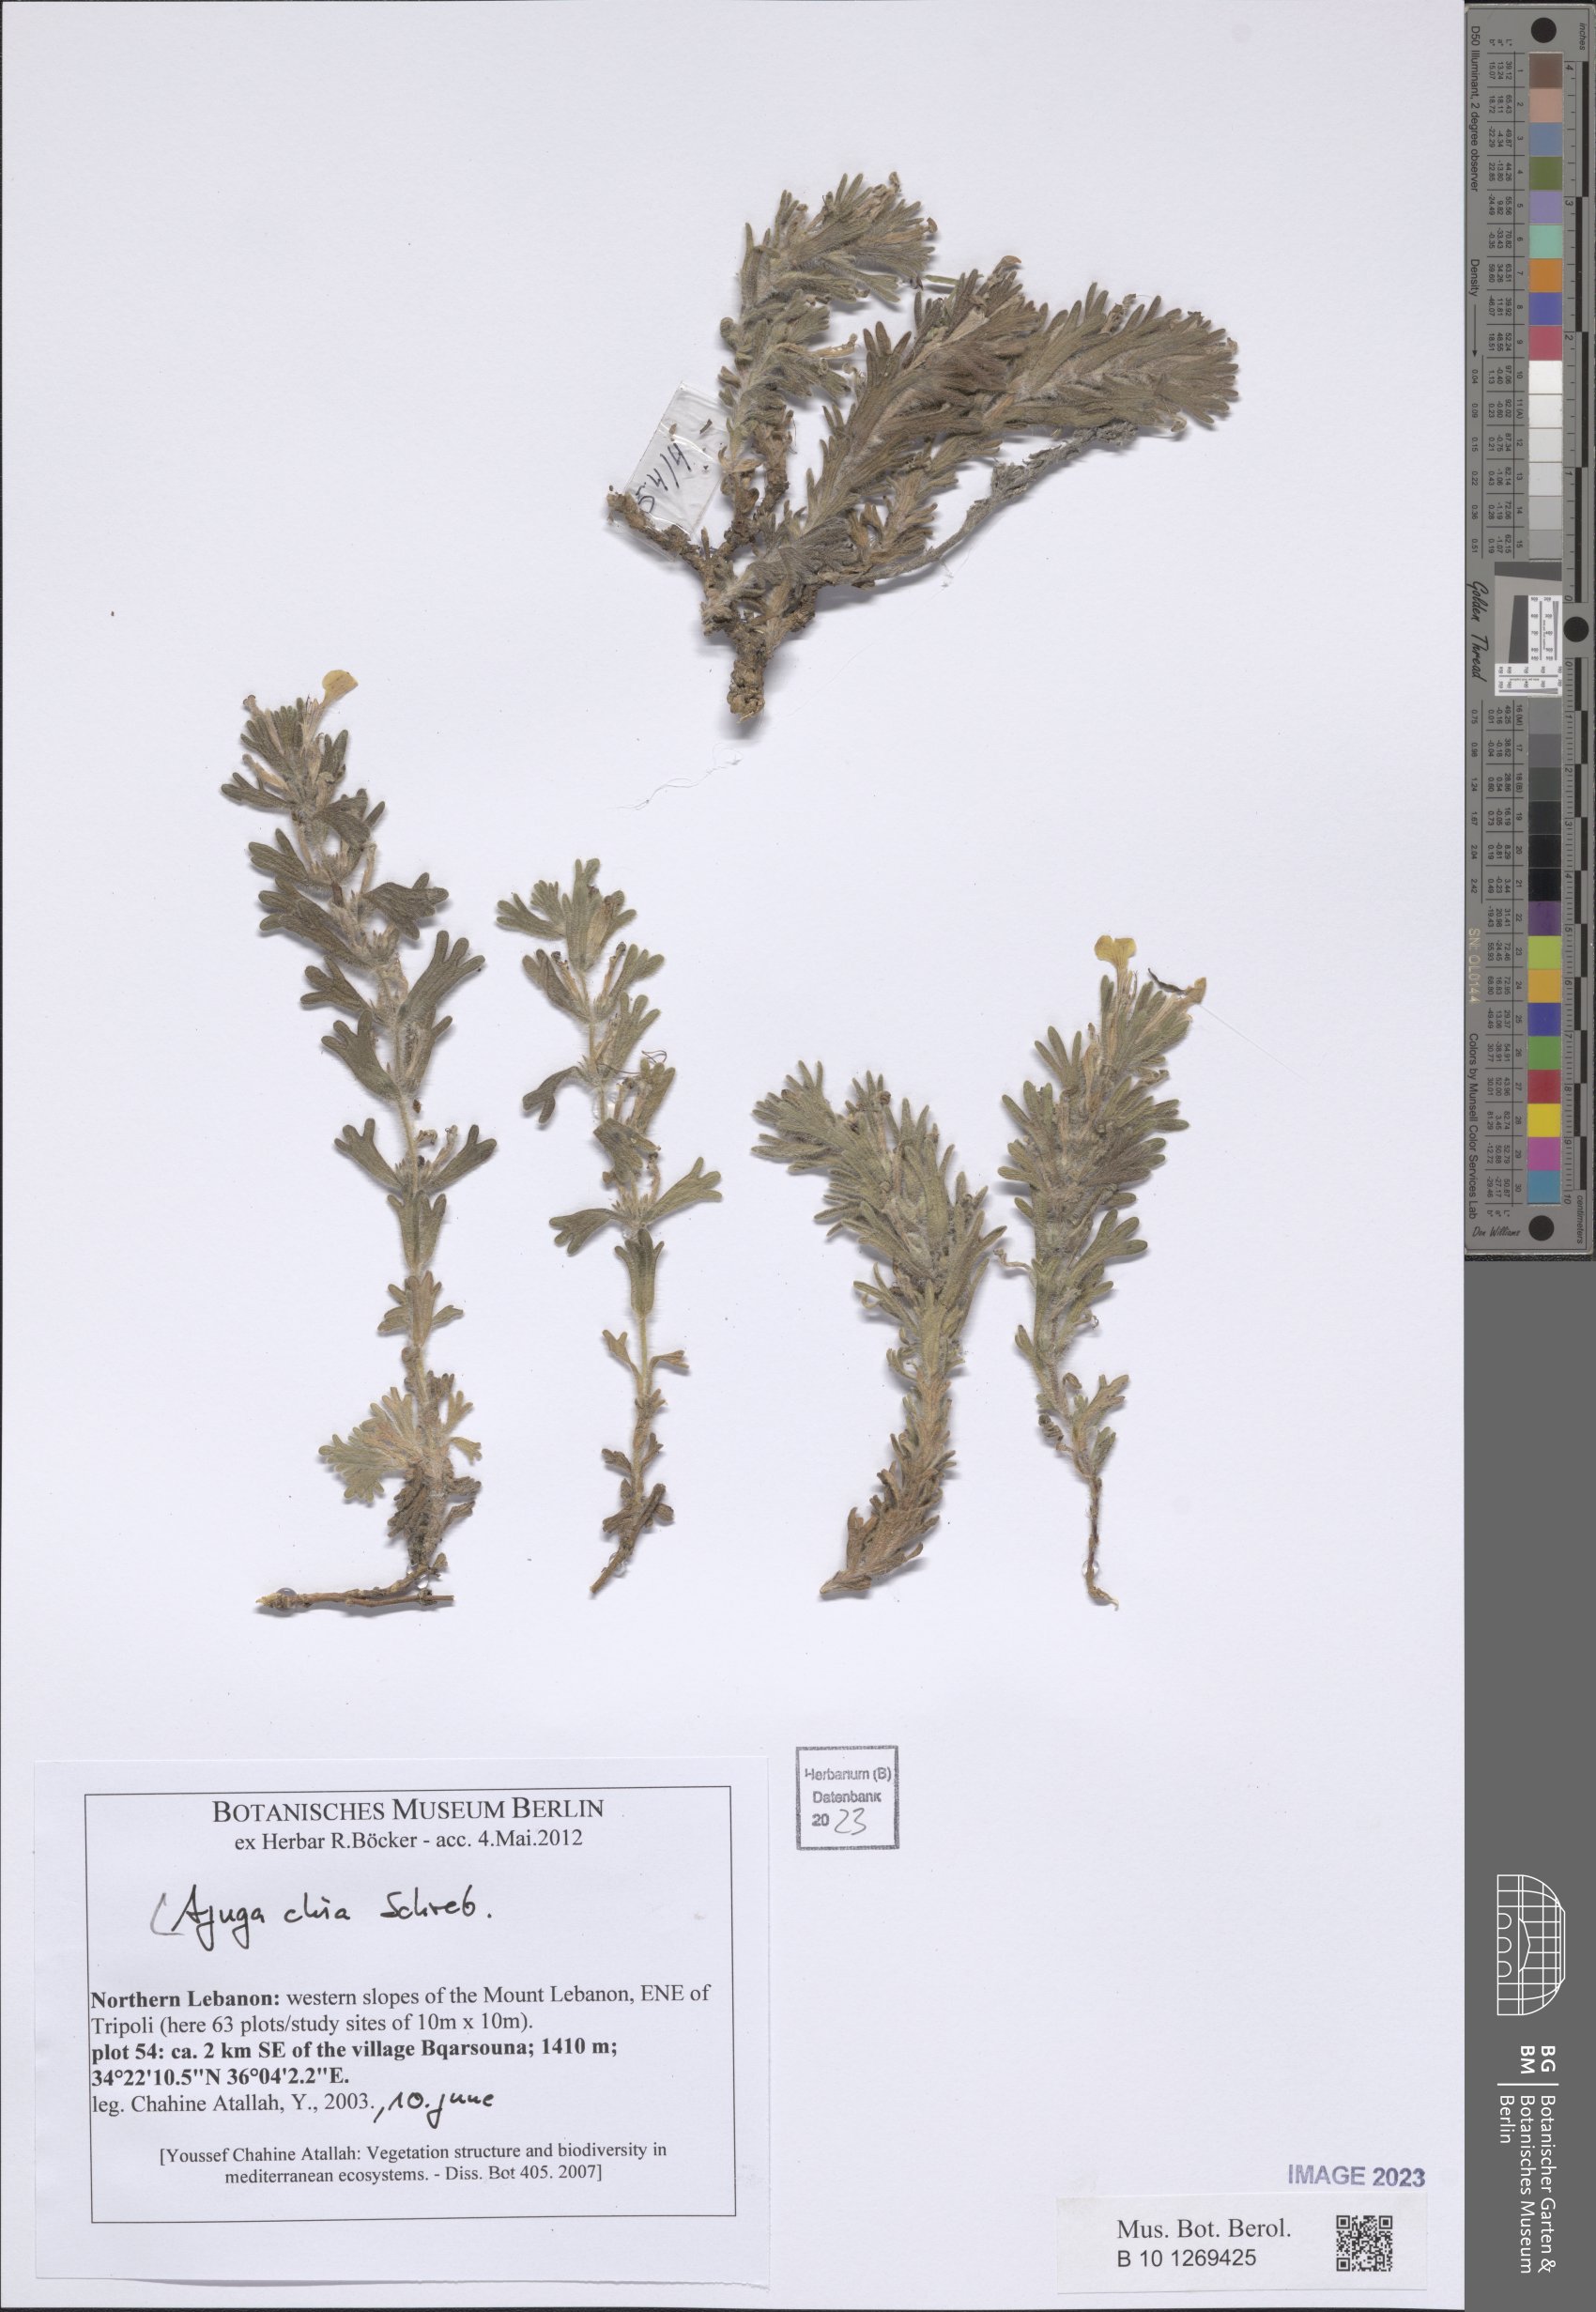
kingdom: Plantae
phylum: Tracheophyta
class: Magnoliopsida
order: Lamiales
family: Lamiaceae
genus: Ajuga
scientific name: Ajuga chamaepitys
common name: Ground-pine
